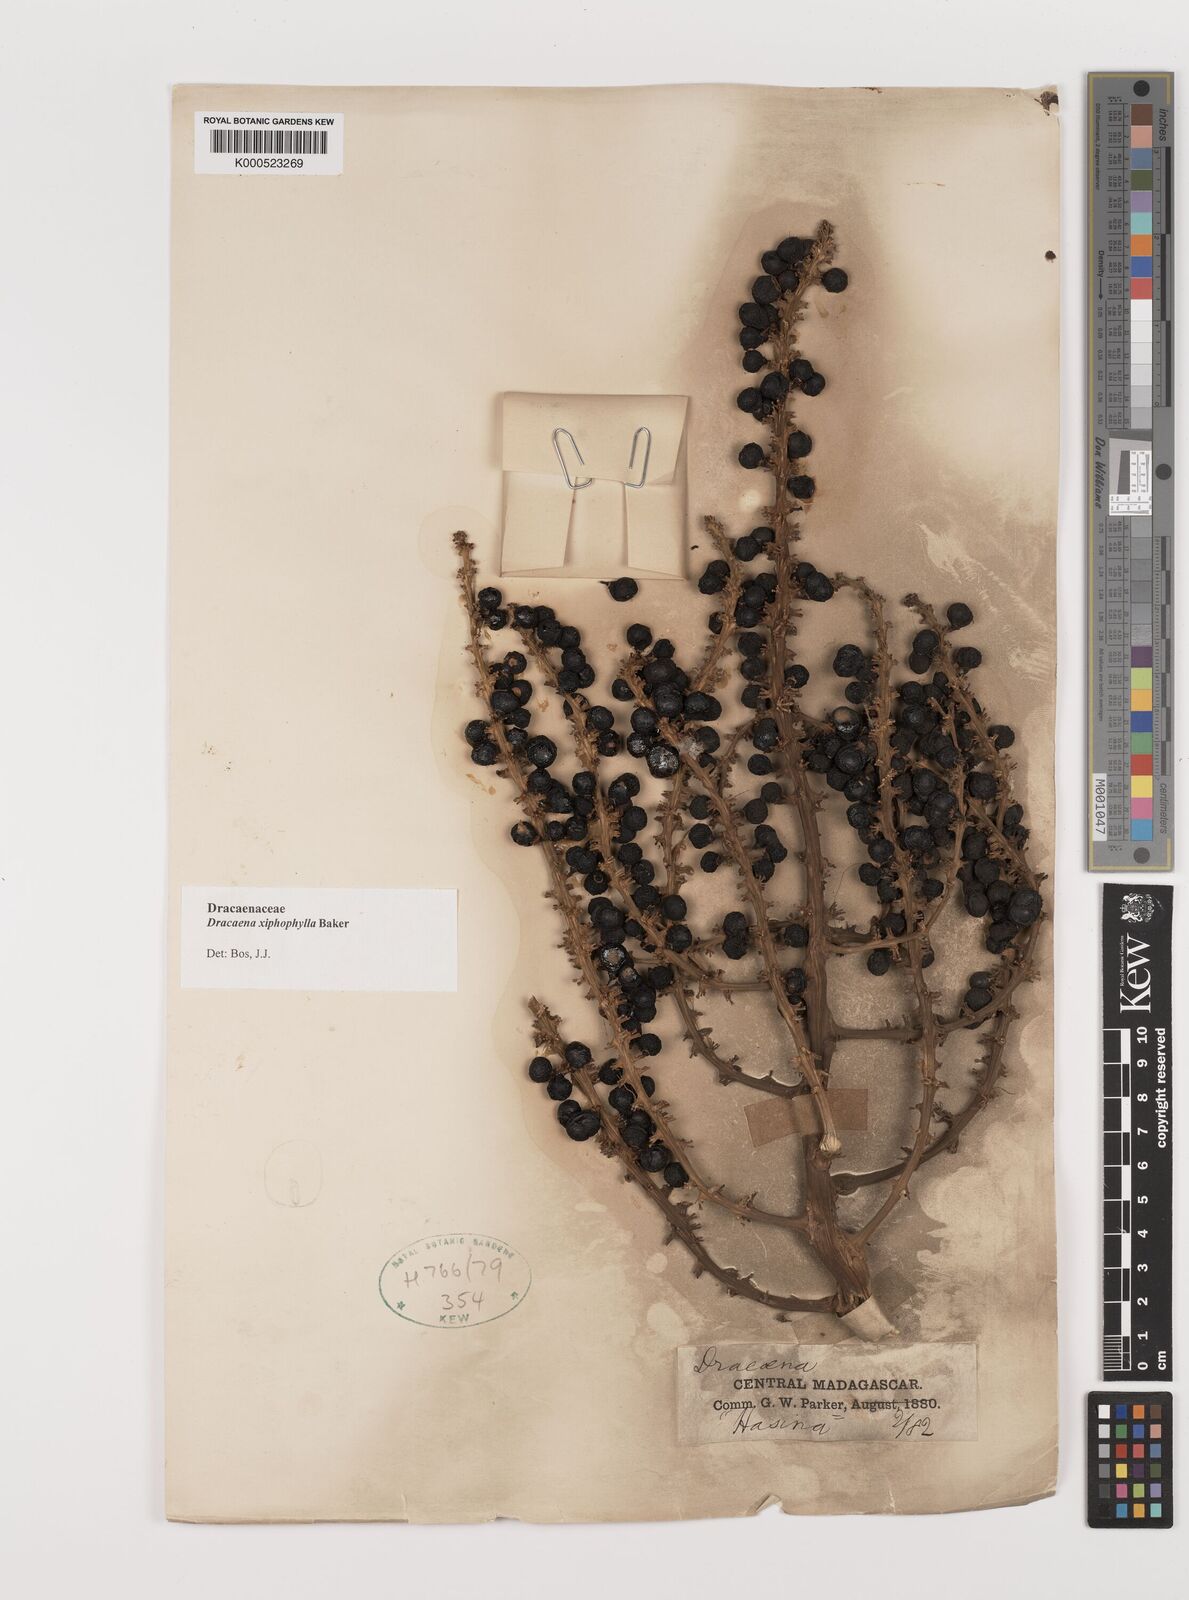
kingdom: Plantae
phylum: Tracheophyta
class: Liliopsida
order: Asparagales
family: Asparagaceae
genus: Dracaena
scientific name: Dracaena xiphophylla
